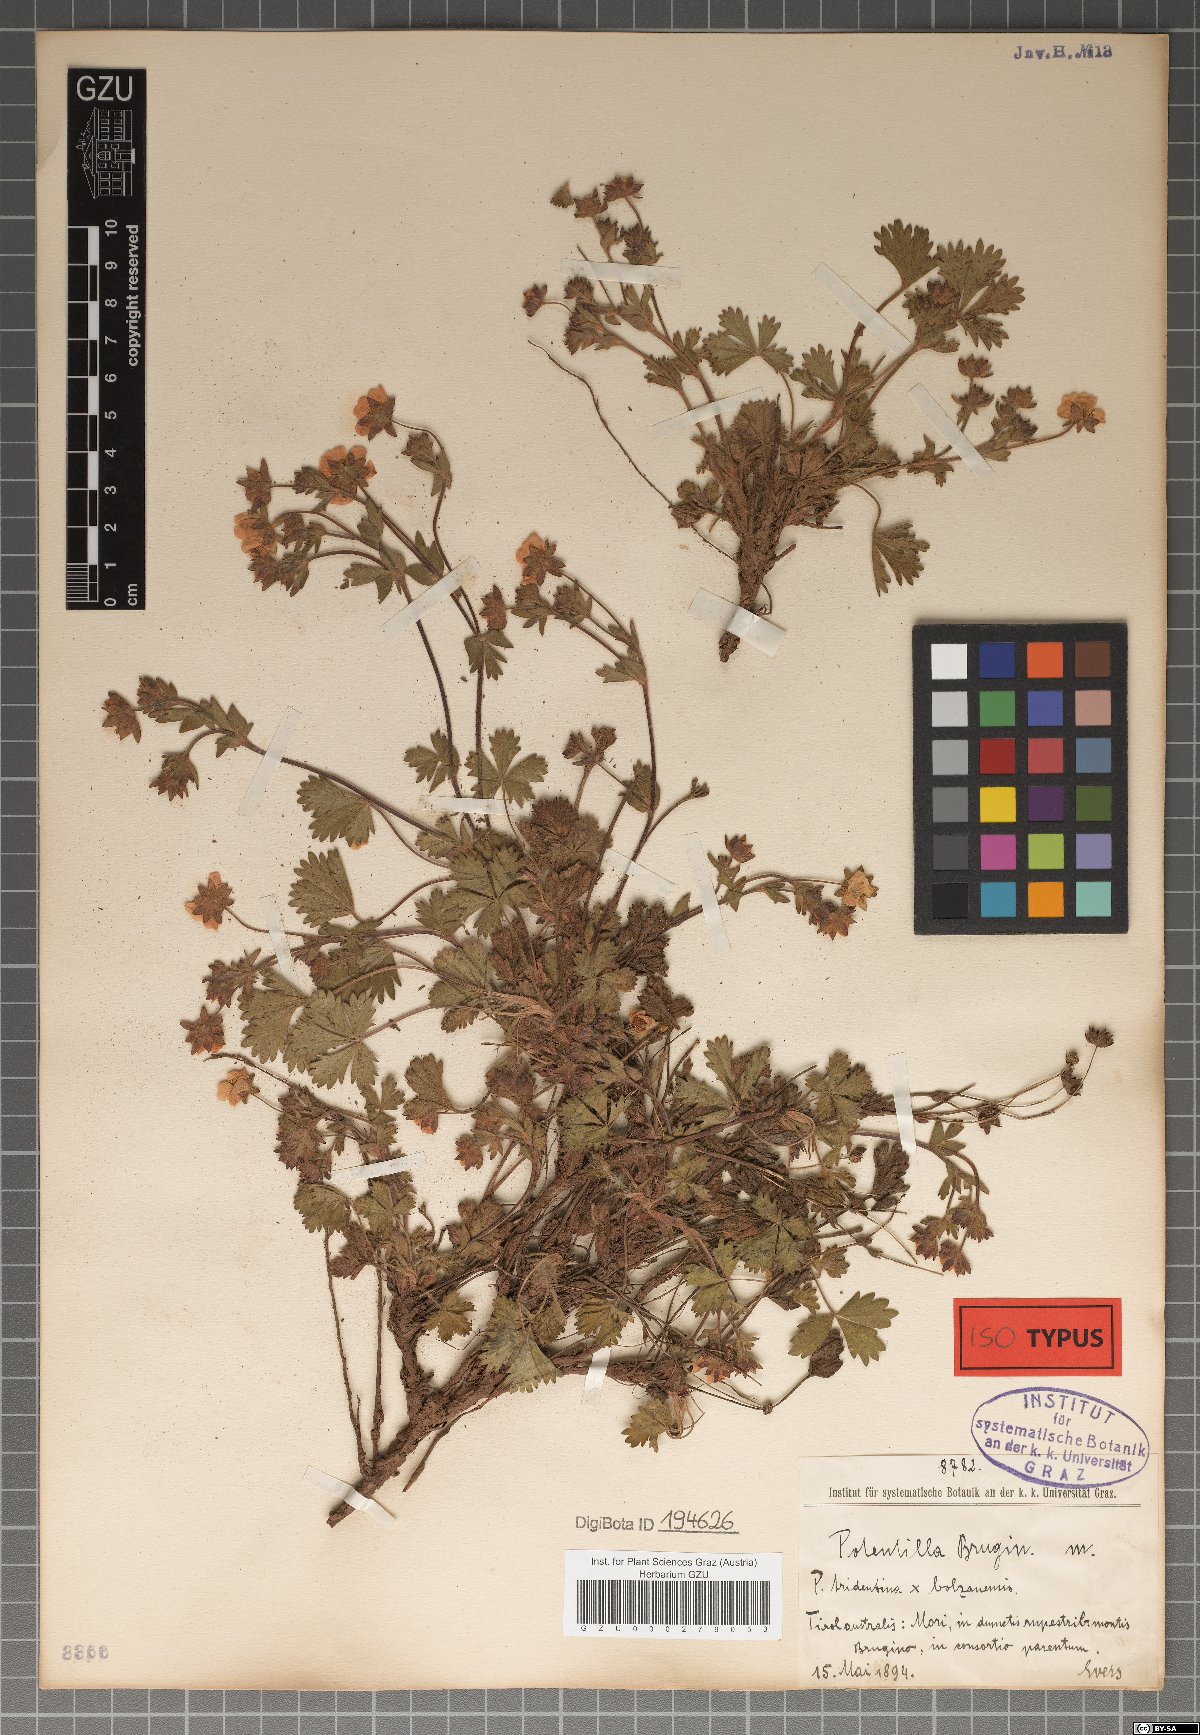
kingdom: Plantae
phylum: Tracheophyta
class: Magnoliopsida
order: Rosales
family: Rosaceae
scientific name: Rosaceae
